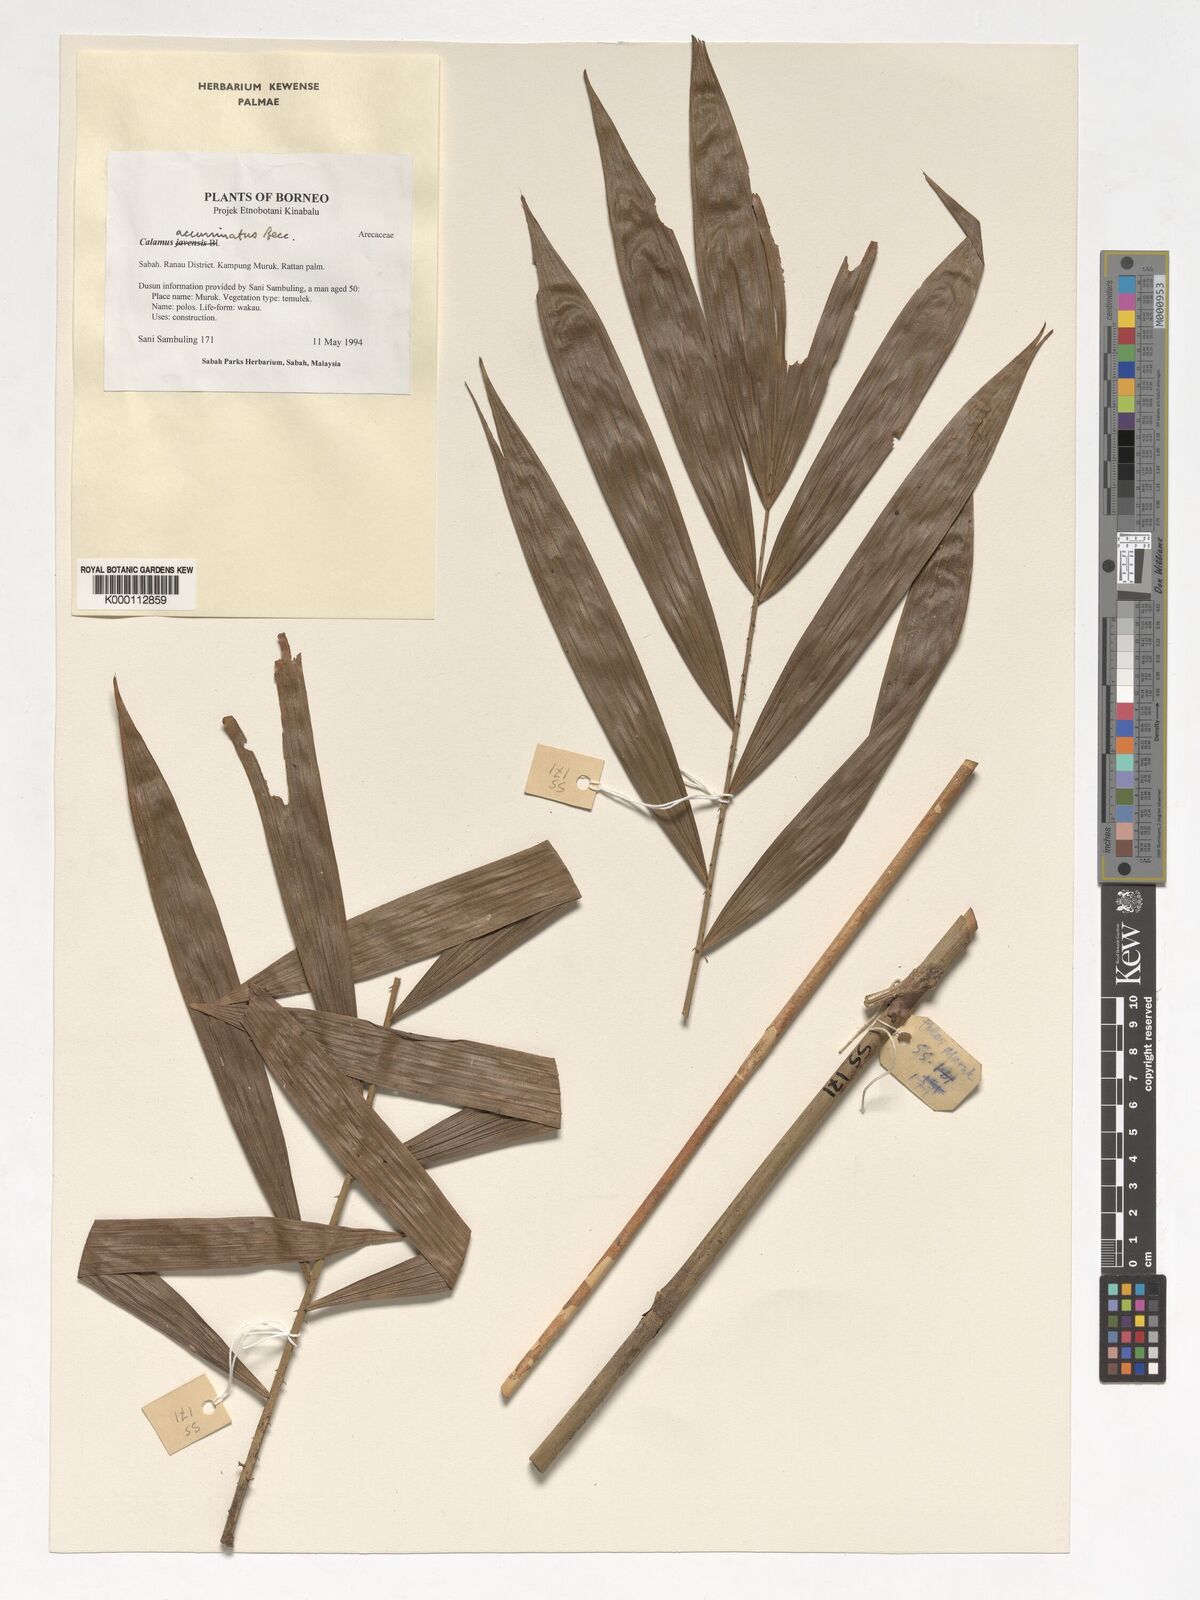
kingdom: Plantae
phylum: Tracheophyta
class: Liliopsida
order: Arecales
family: Arecaceae
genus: Calamus
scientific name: Calamus javensis
